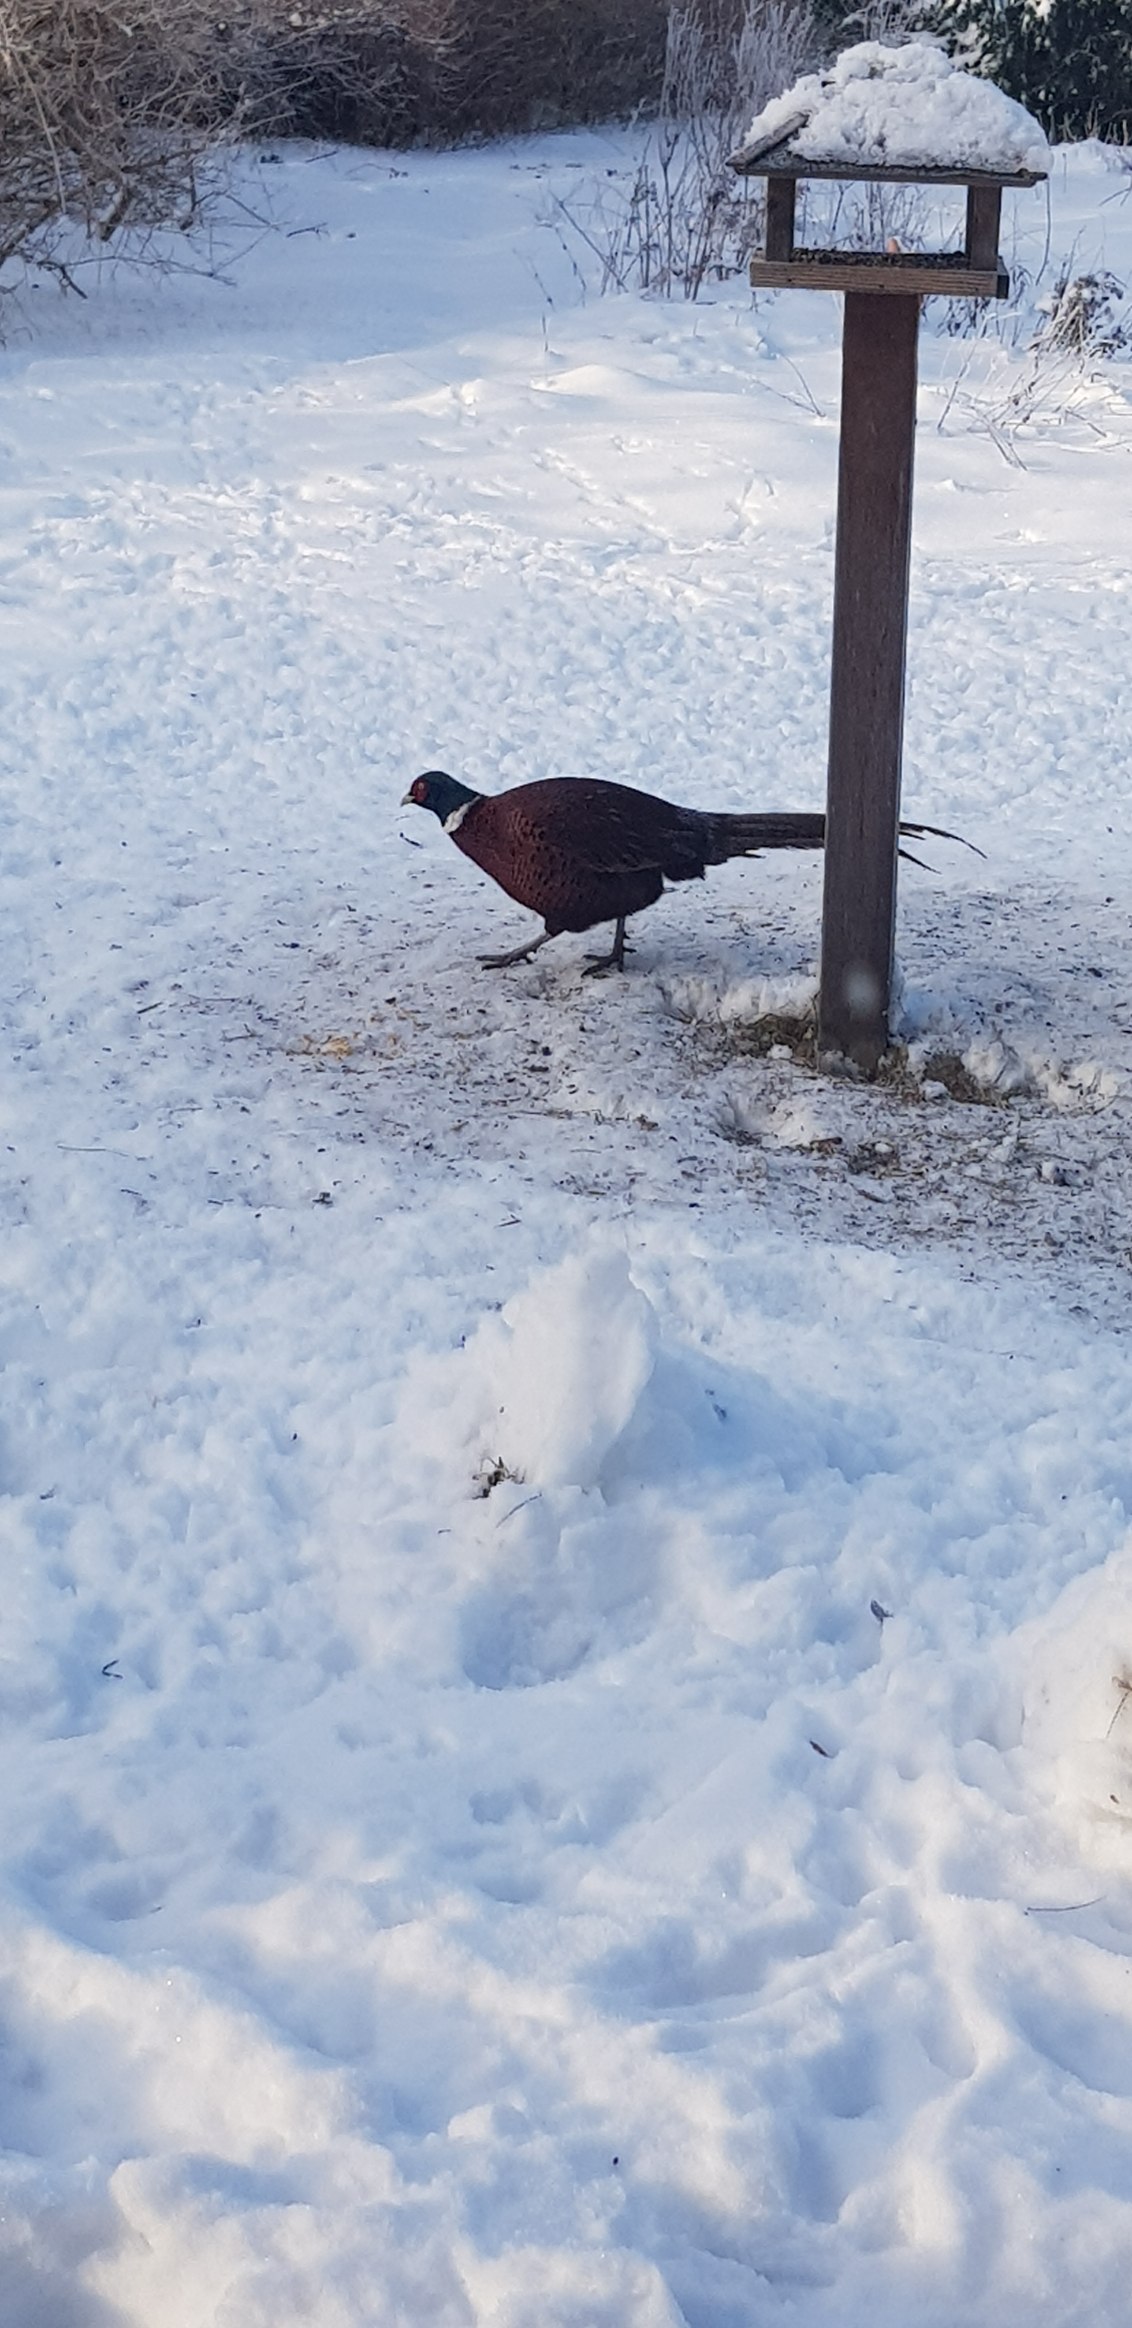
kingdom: Animalia
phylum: Chordata
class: Aves
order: Galliformes
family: Phasianidae
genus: Phasianus
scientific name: Phasianus colchicus
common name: Fasan
